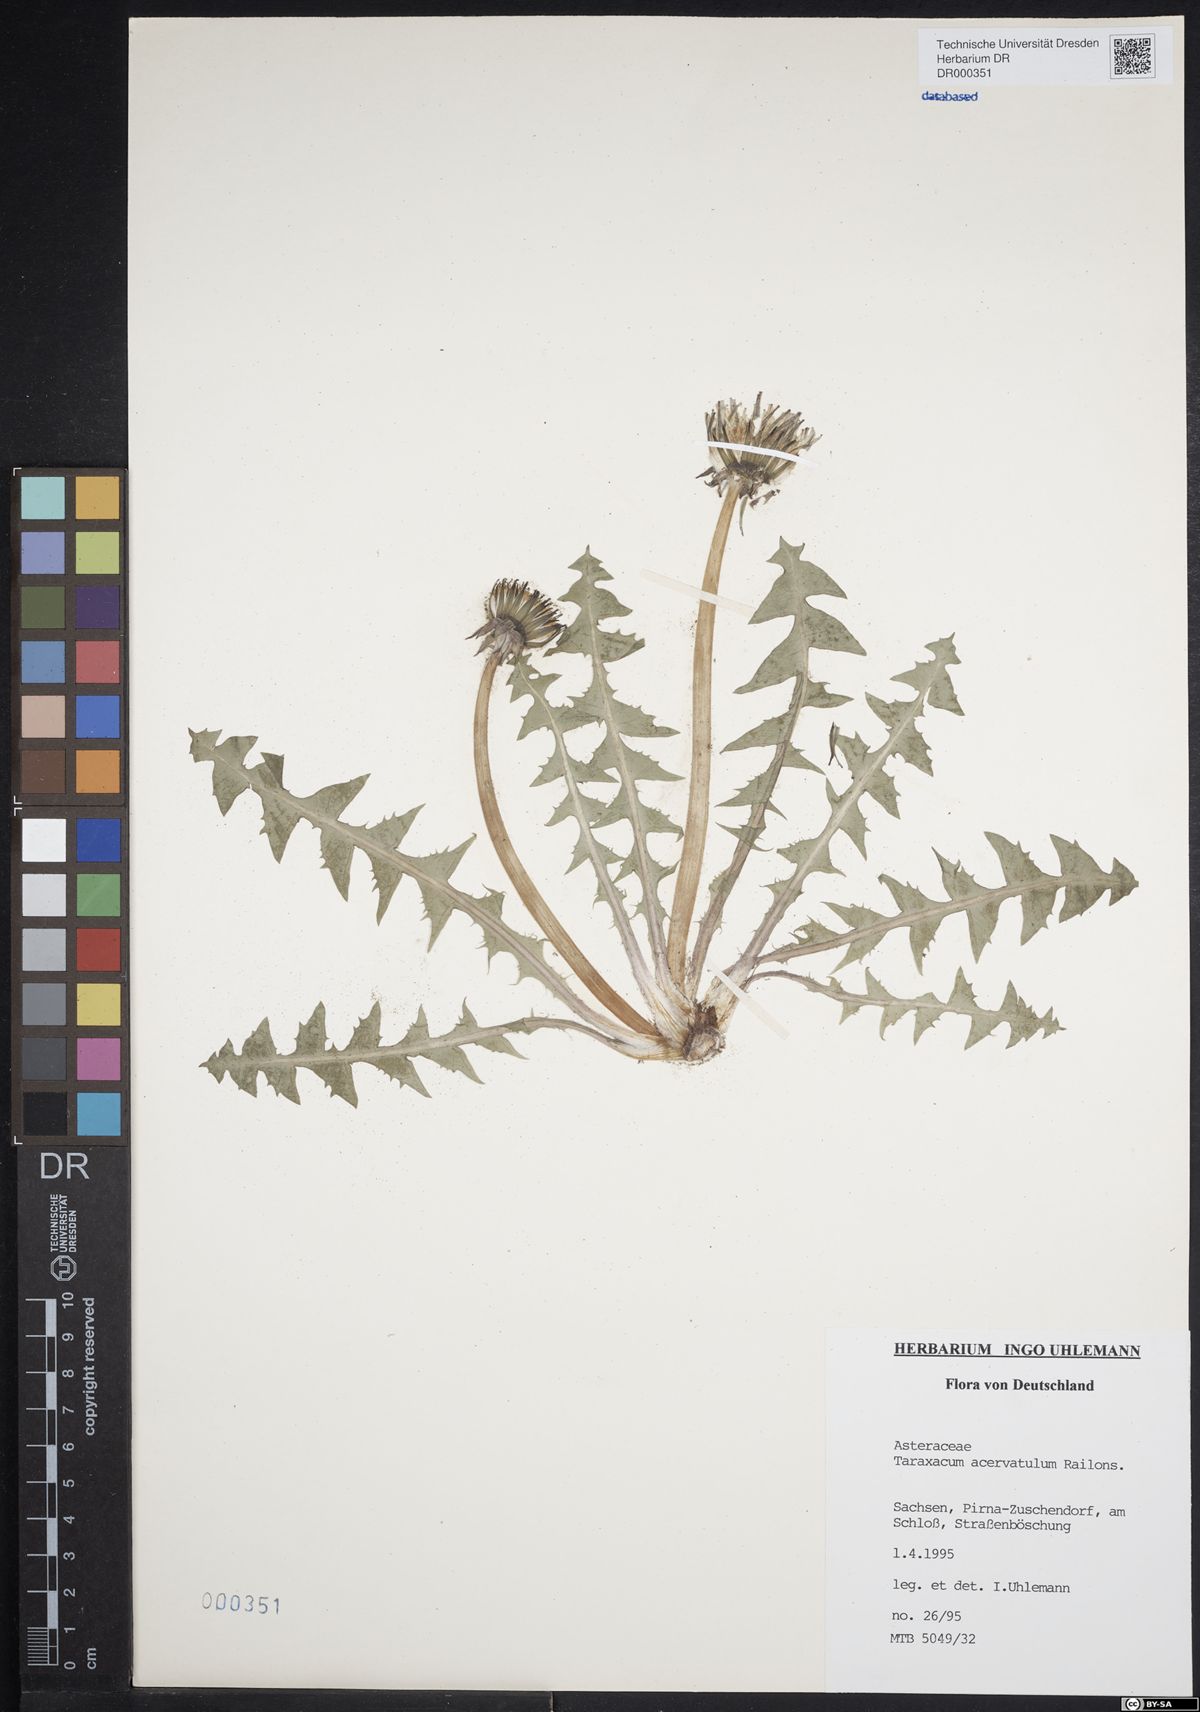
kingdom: Plantae
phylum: Tracheophyta
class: Magnoliopsida
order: Asterales
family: Asteraceae
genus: Taraxacum
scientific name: Taraxacum acervatulum
